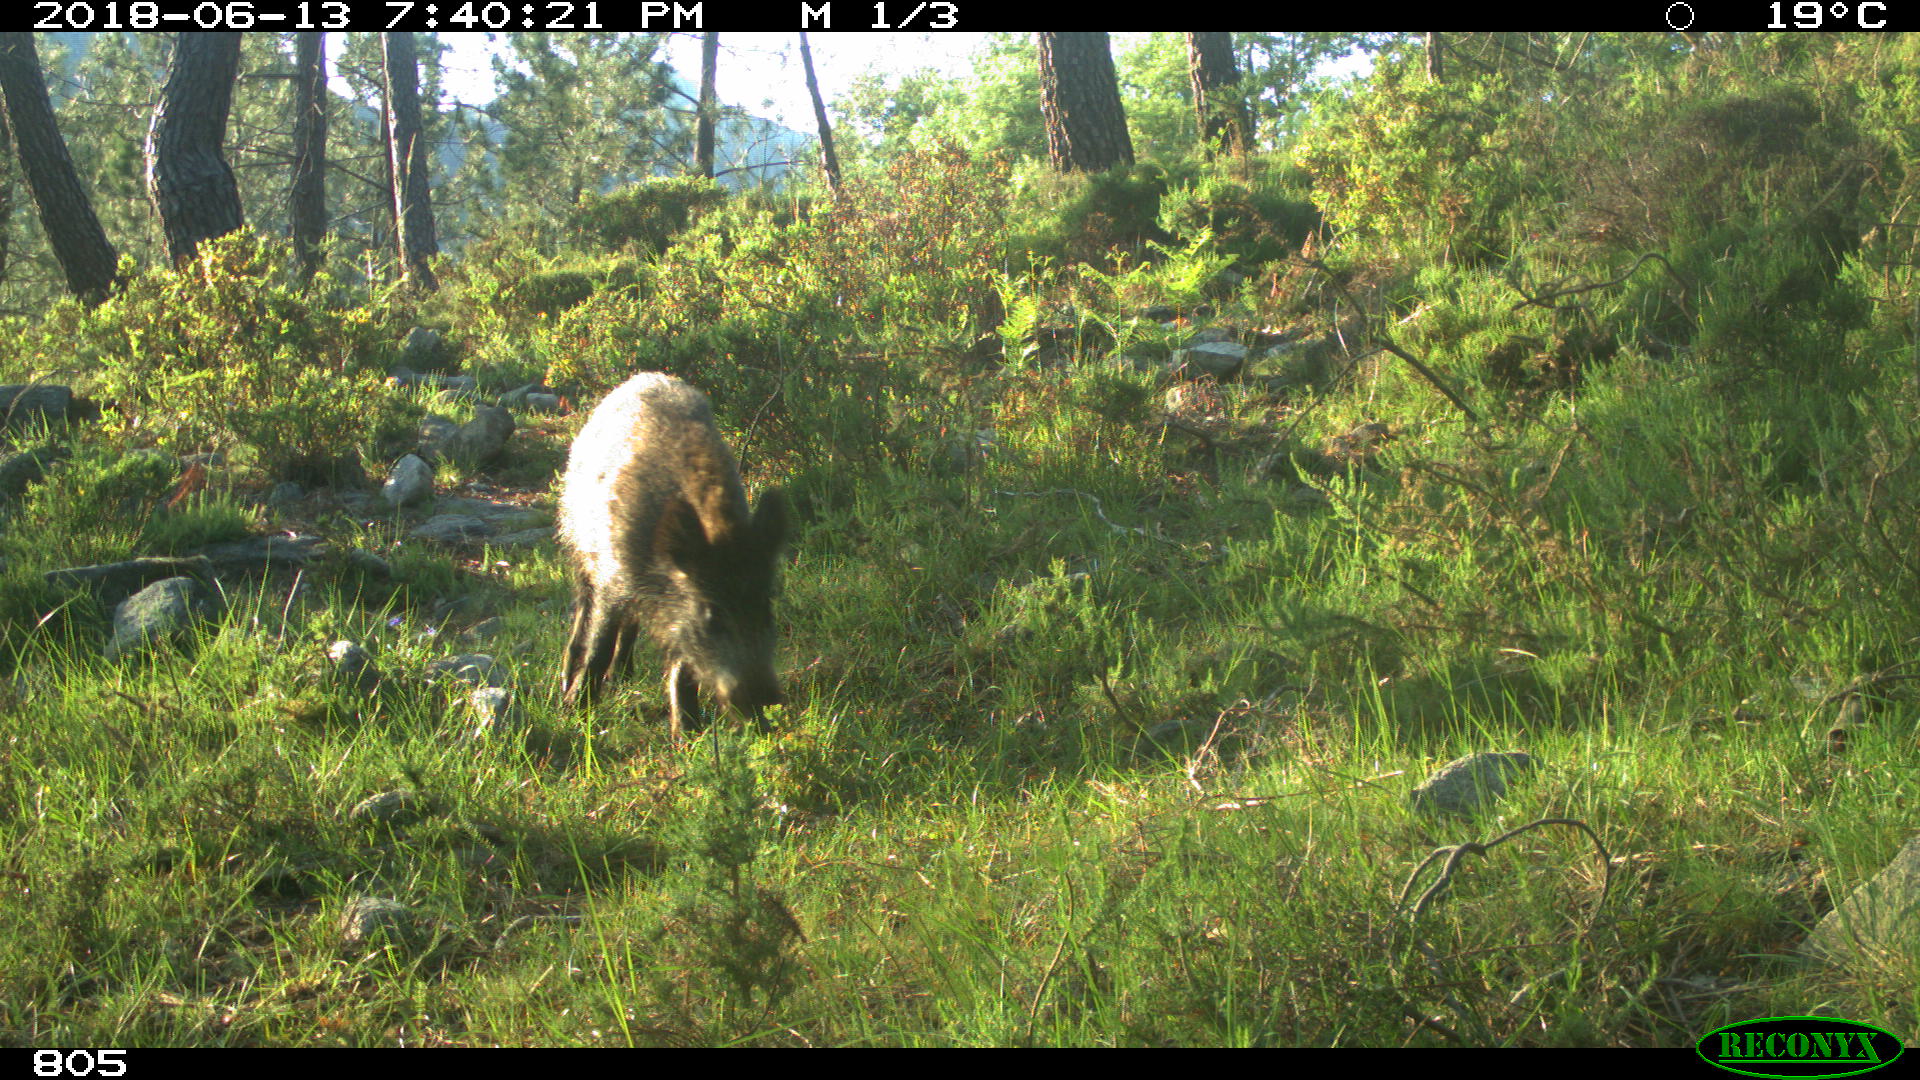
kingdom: Animalia
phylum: Chordata
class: Mammalia
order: Artiodactyla
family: Suidae
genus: Sus
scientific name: Sus scrofa
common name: Wild boar
